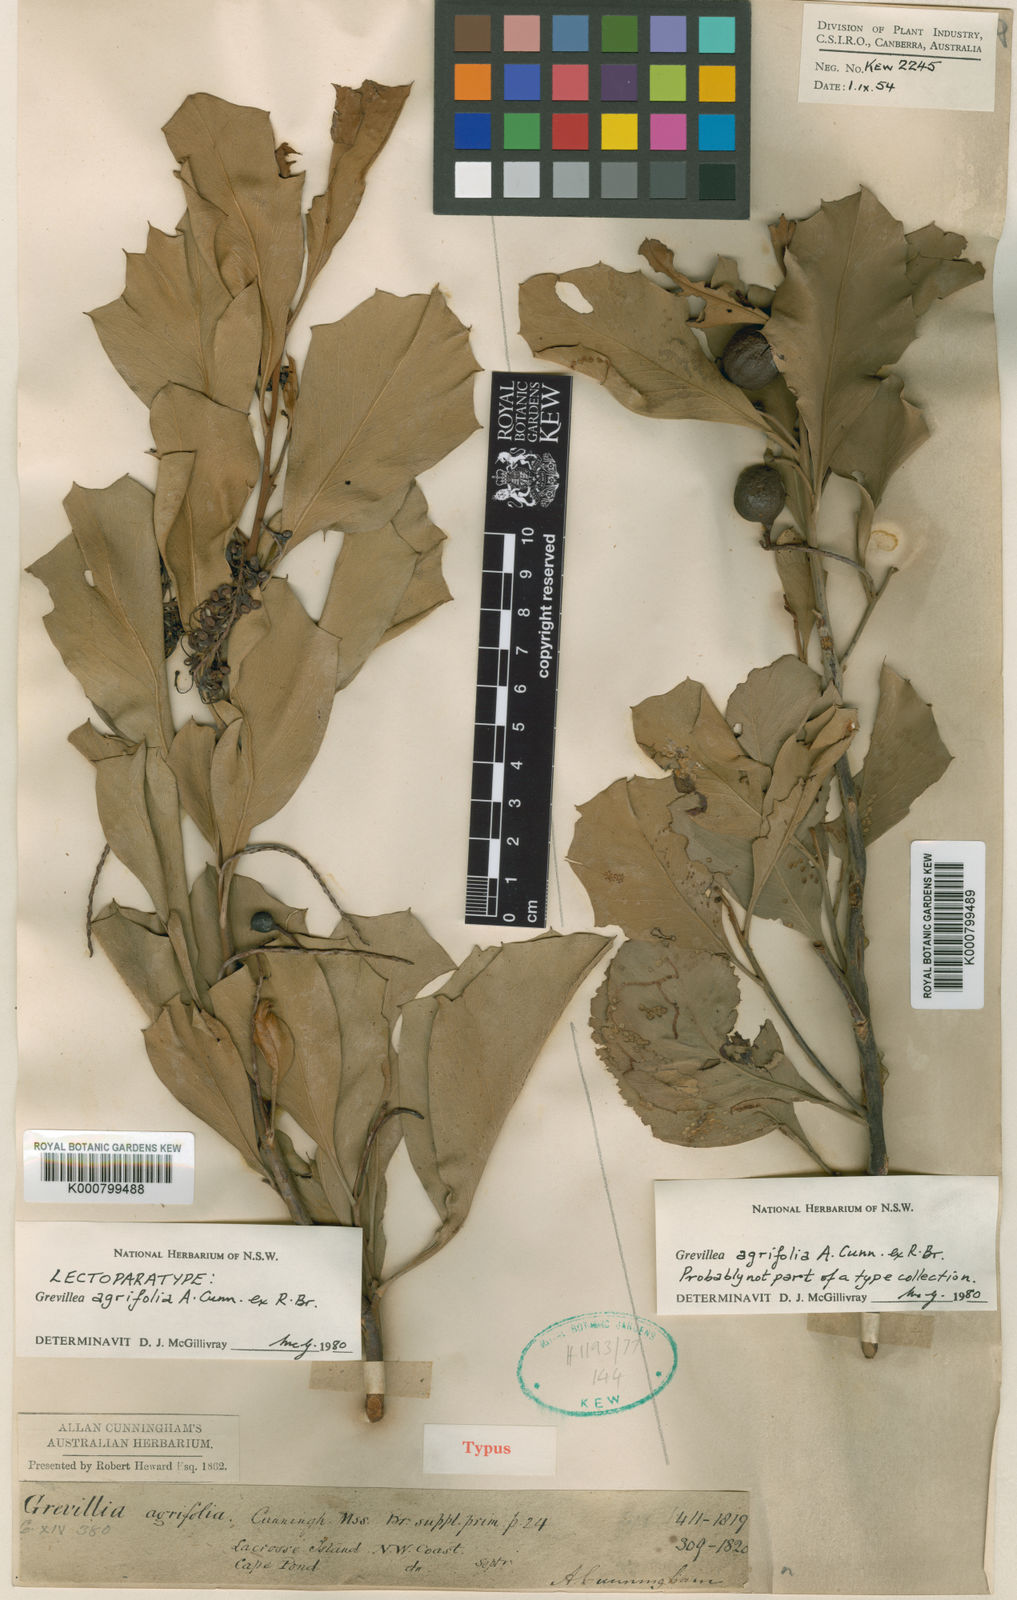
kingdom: Plantae
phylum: Tracheophyta
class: Magnoliopsida
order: Proteales
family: Proteaceae
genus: Grevillea
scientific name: Grevillea agrifolia
